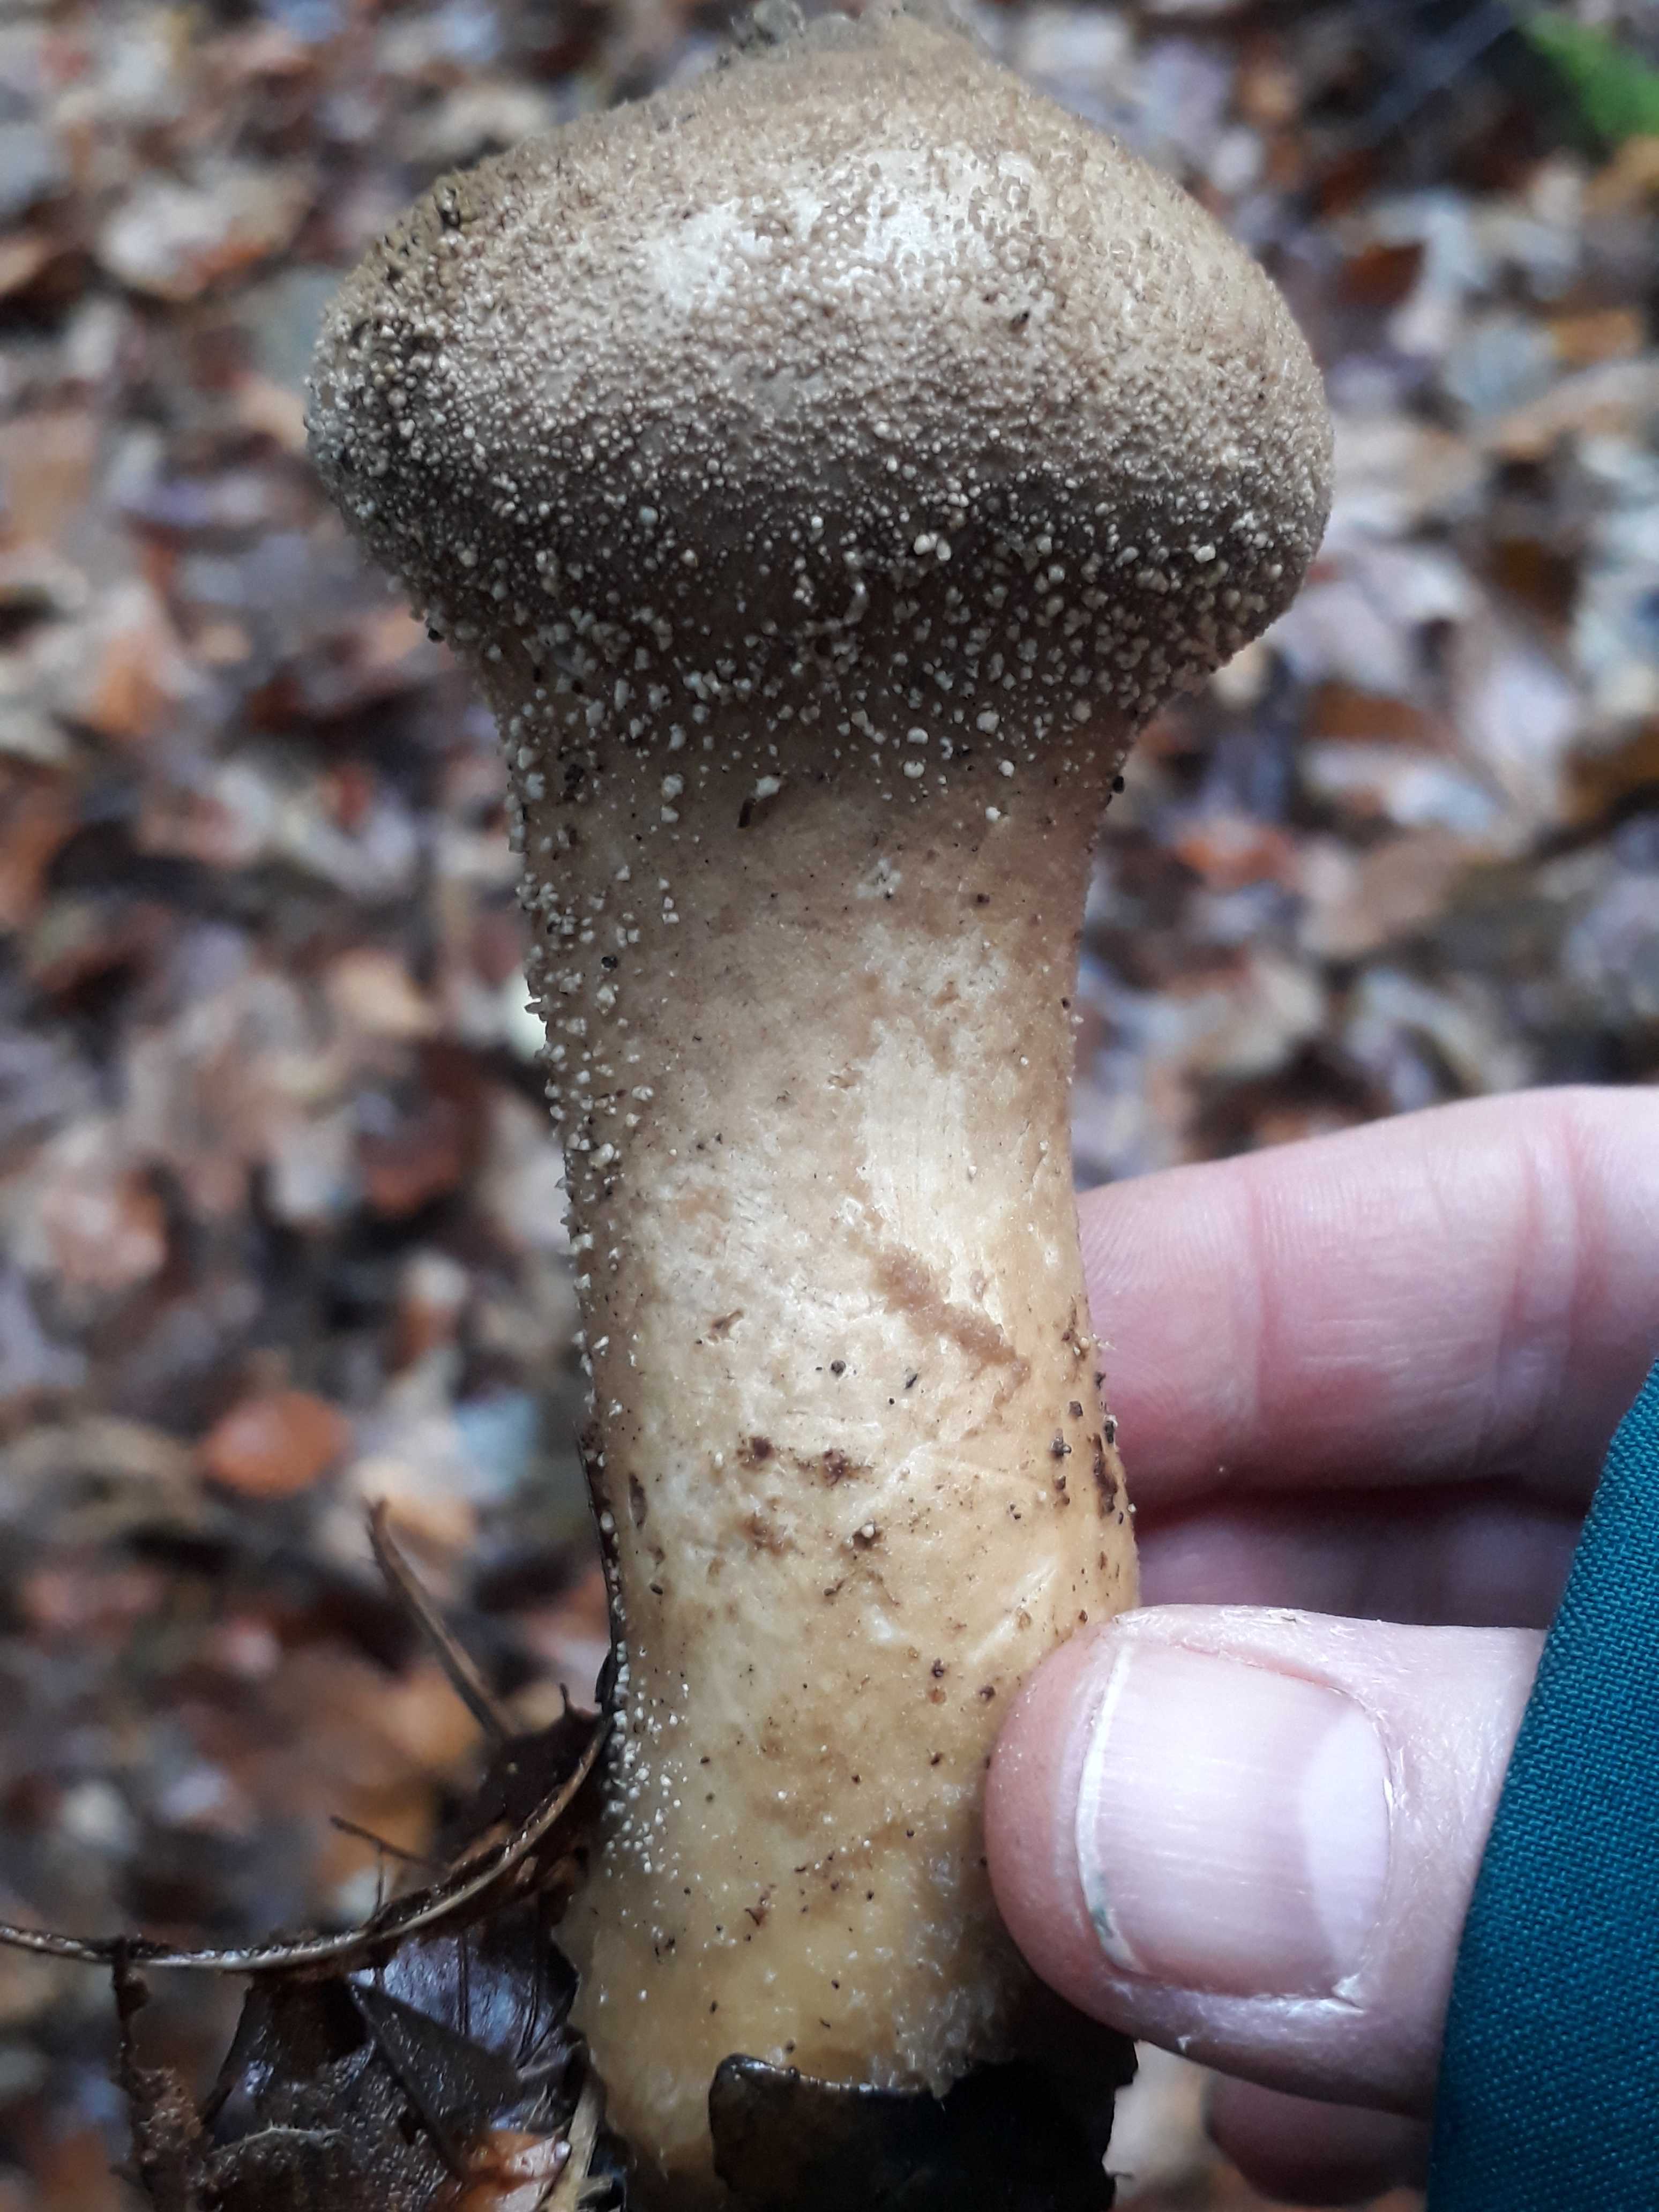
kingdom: Fungi
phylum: Basidiomycota
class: Agaricomycetes
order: Agaricales
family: Lycoperdaceae
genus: Lycoperdon
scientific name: Lycoperdon perlatum
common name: krystal-støvbold
